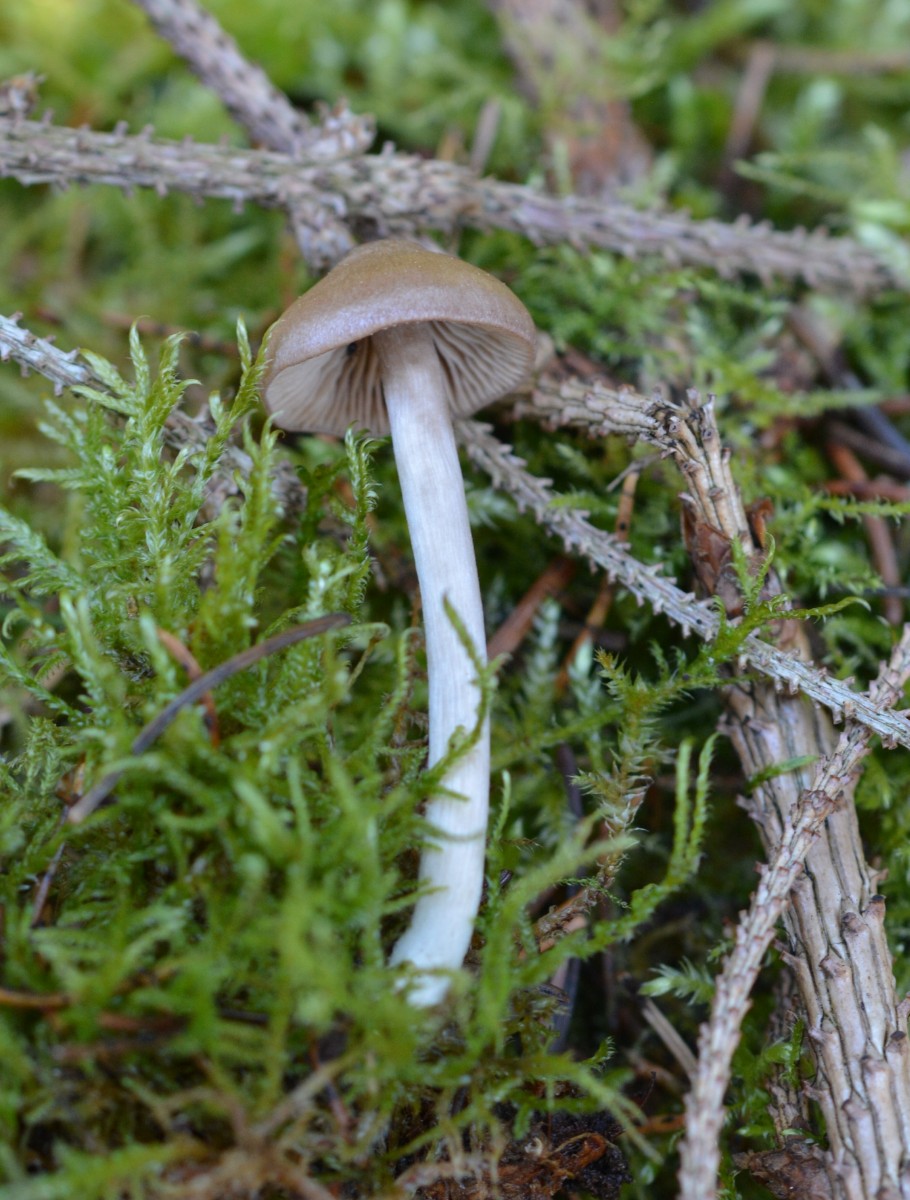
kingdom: Fungi
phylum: Basidiomycota
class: Agaricomycetes
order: Agaricales
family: Entolomataceae
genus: Entoloma
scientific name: Entoloma cetratum
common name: voks-rødblad
